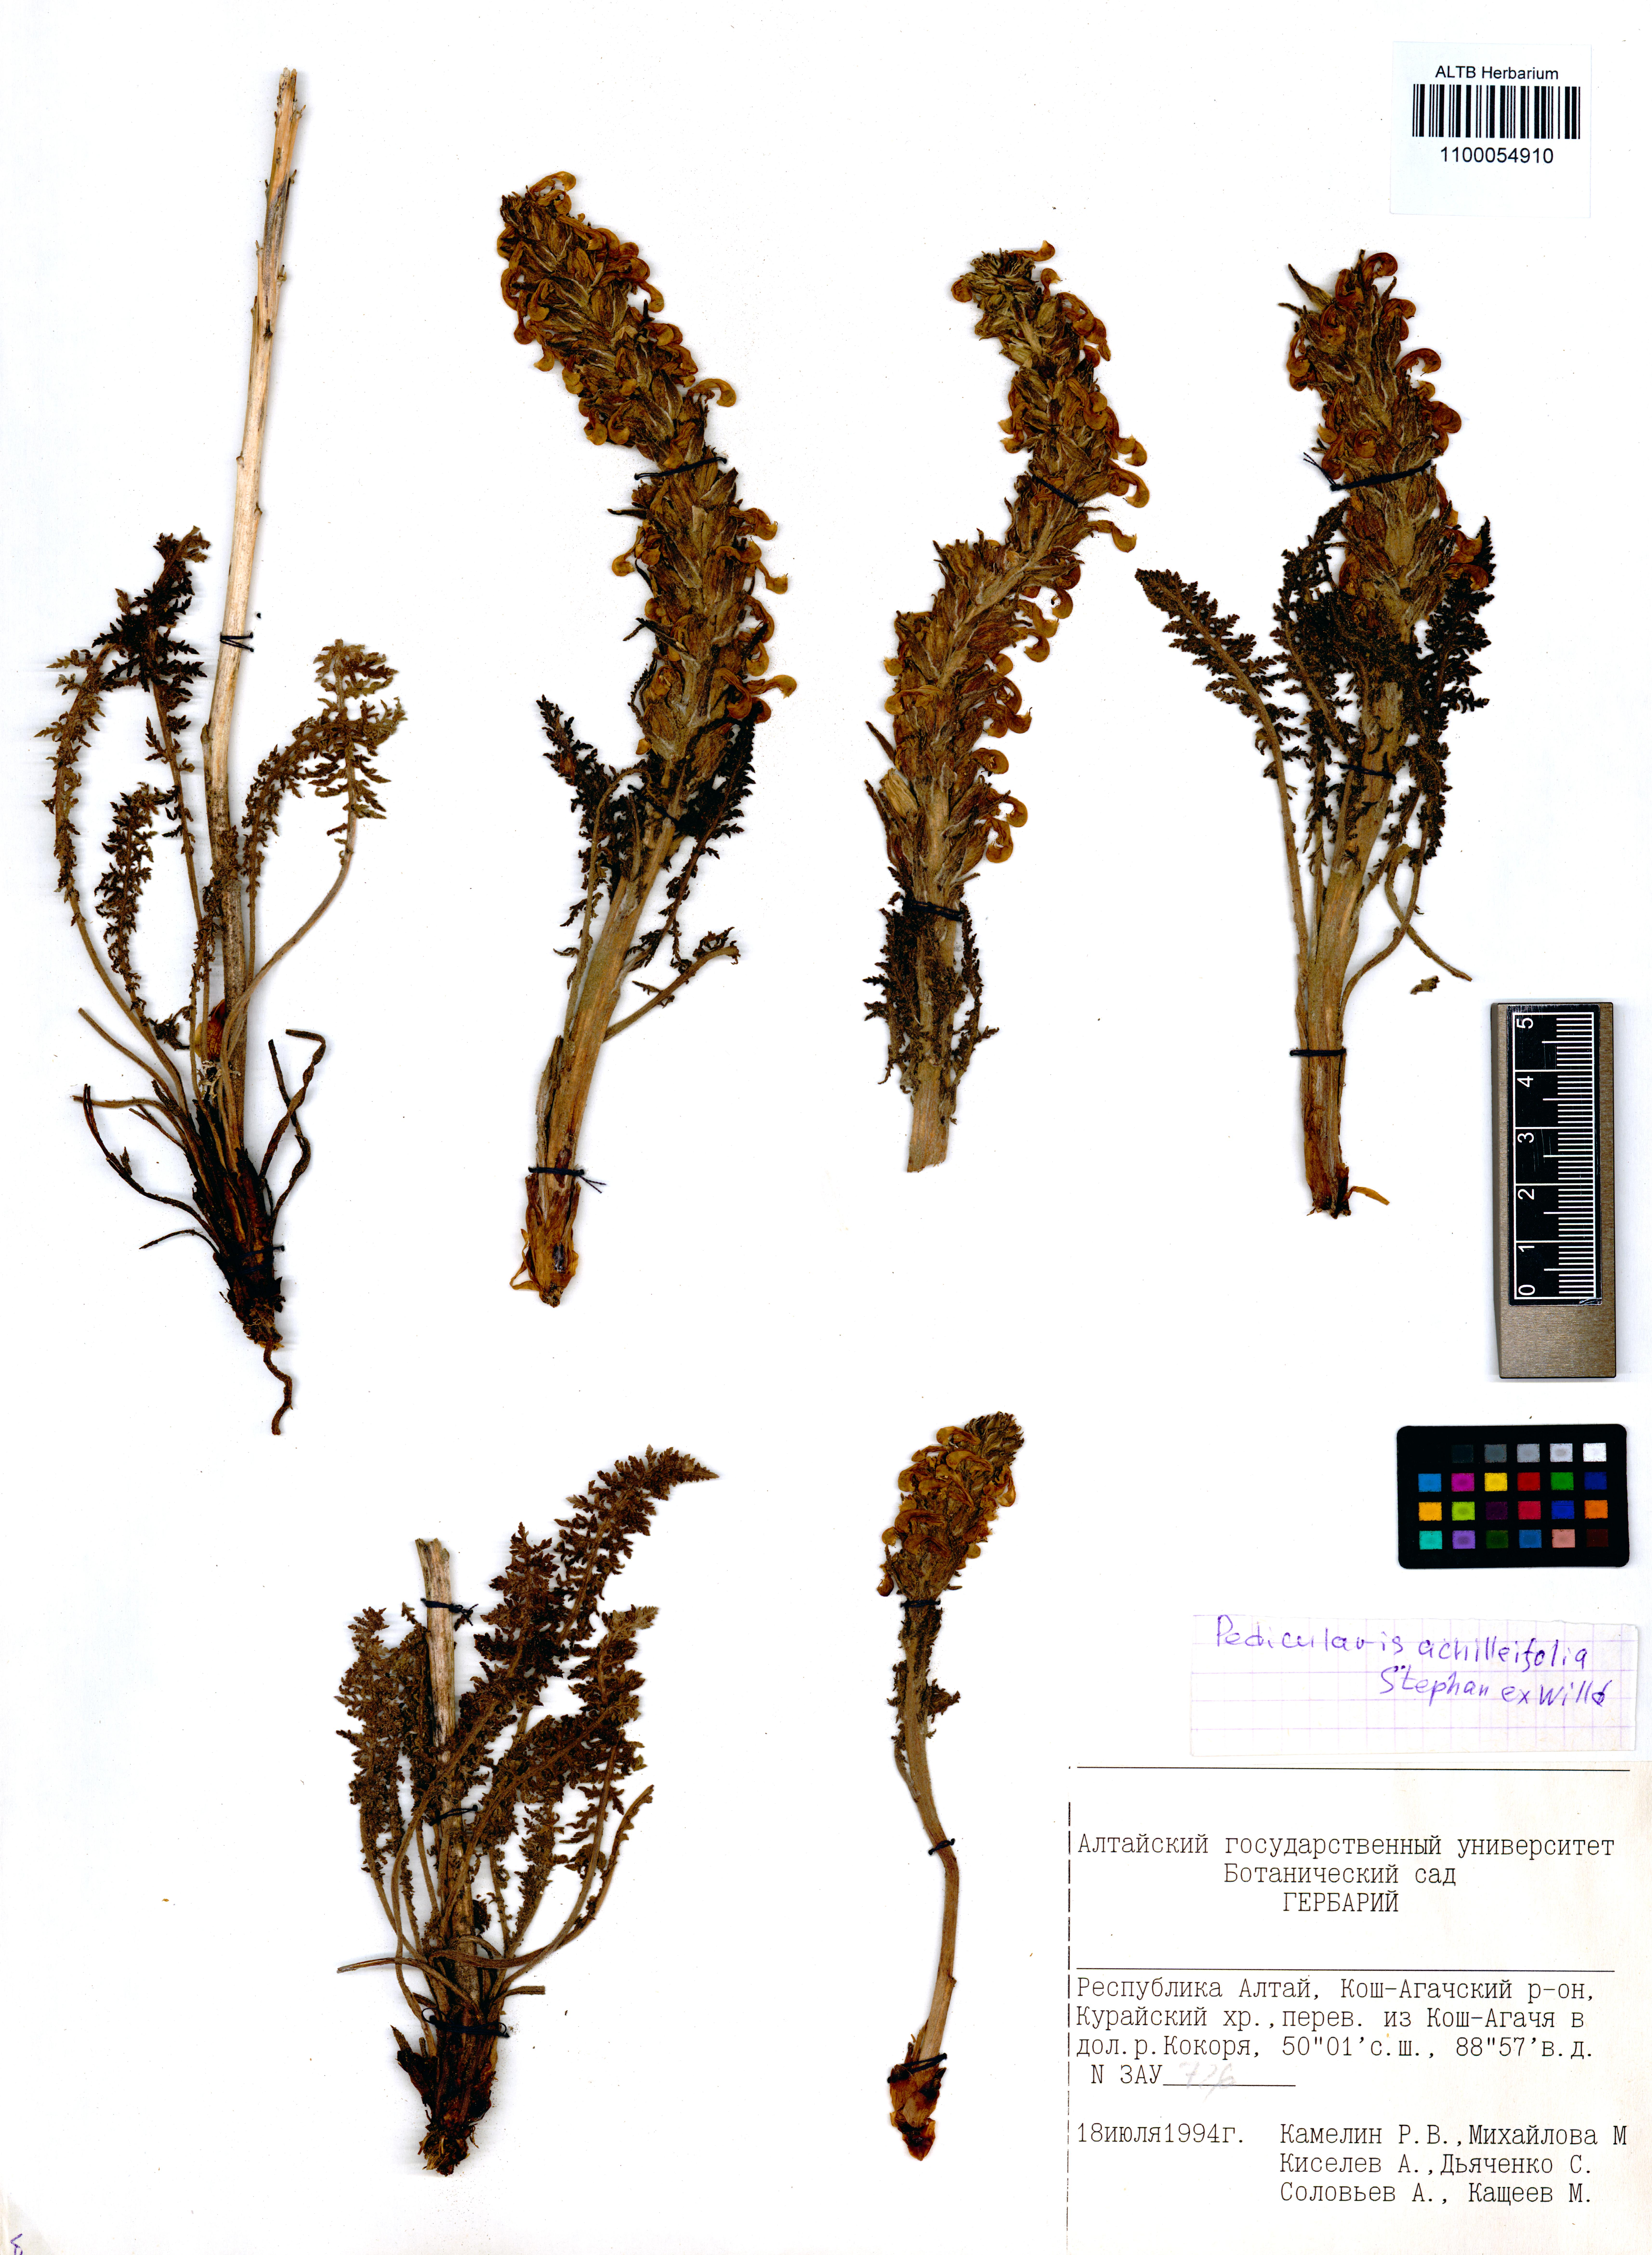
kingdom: Plantae
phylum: Tracheophyta
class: Magnoliopsida
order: Lamiales
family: Orobanchaceae
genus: Pedicularis
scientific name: Pedicularis achilleifolia
